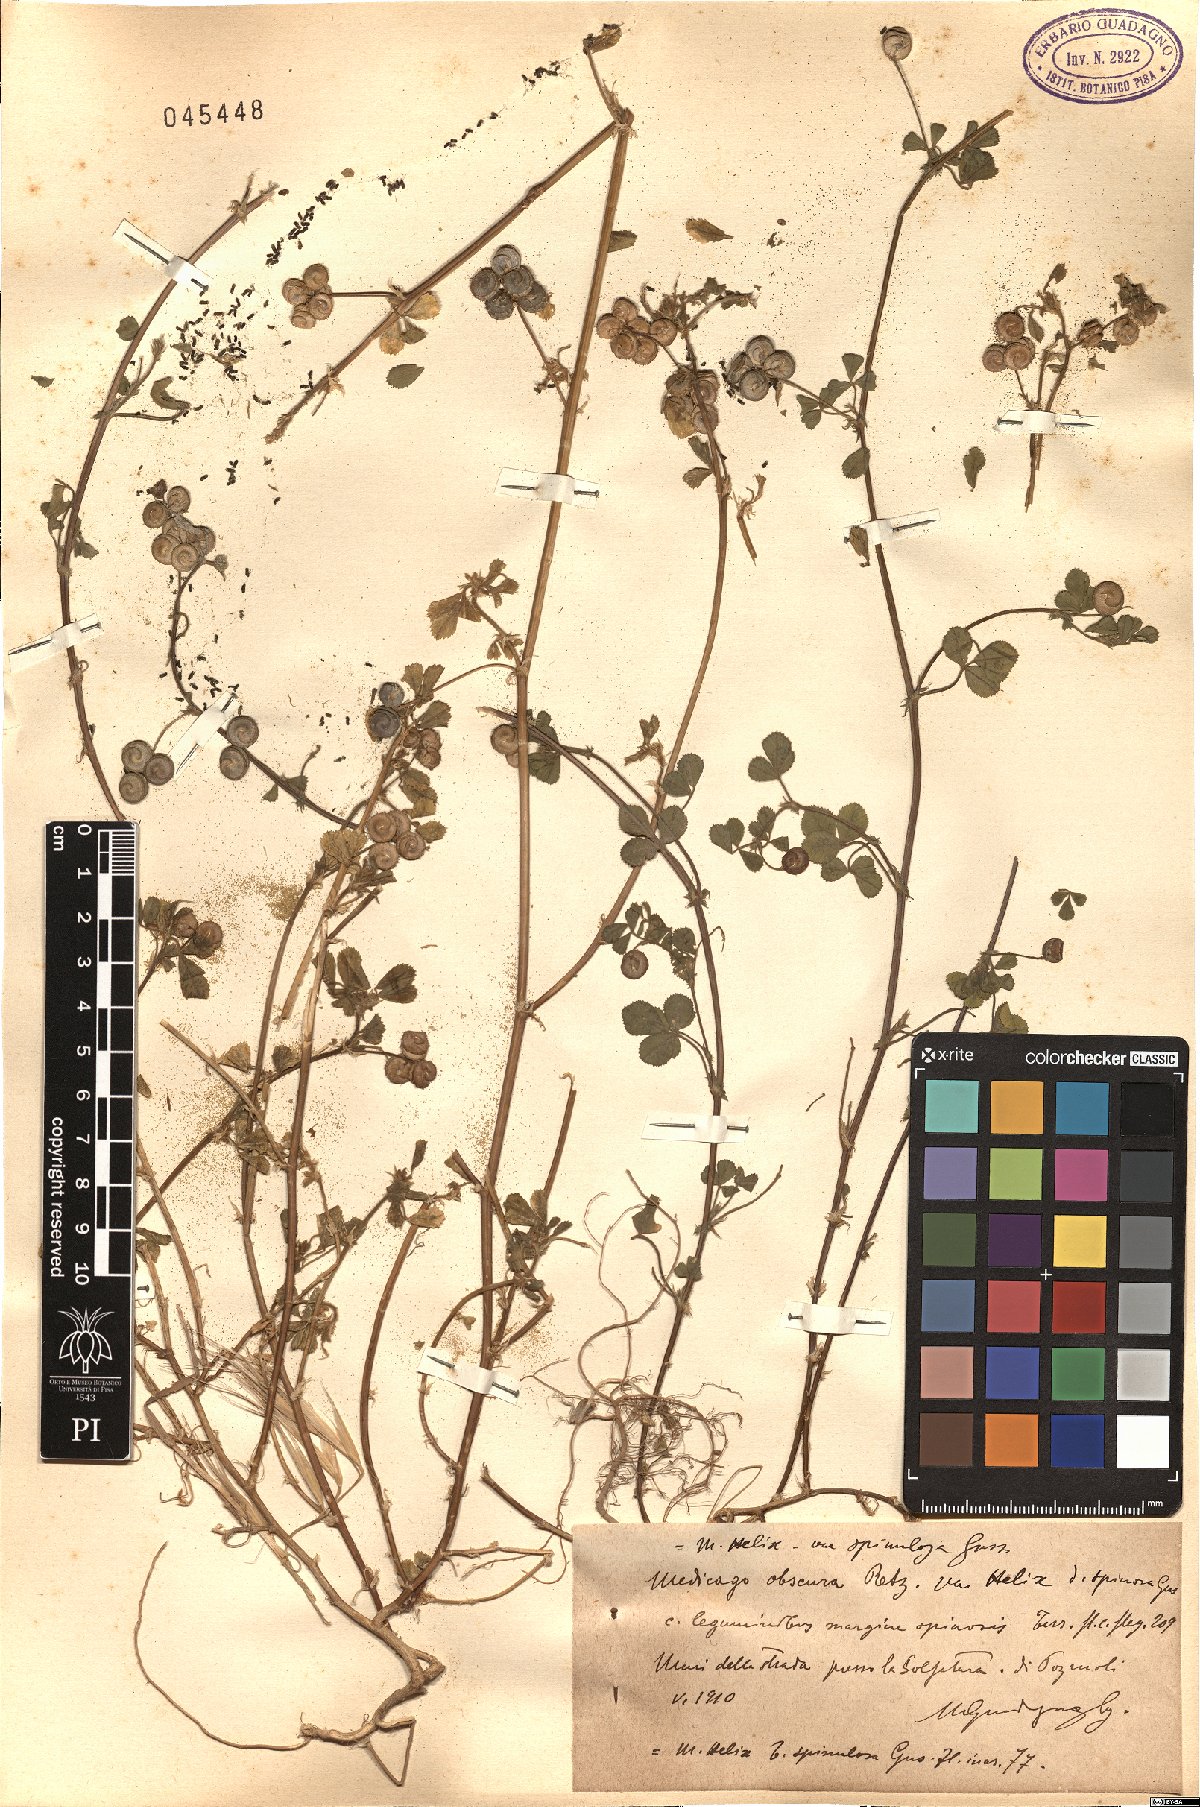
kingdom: Plantae
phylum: Tracheophyta
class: Magnoliopsida
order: Fabales
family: Fabaceae
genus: Medicago
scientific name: Medicago tornata
